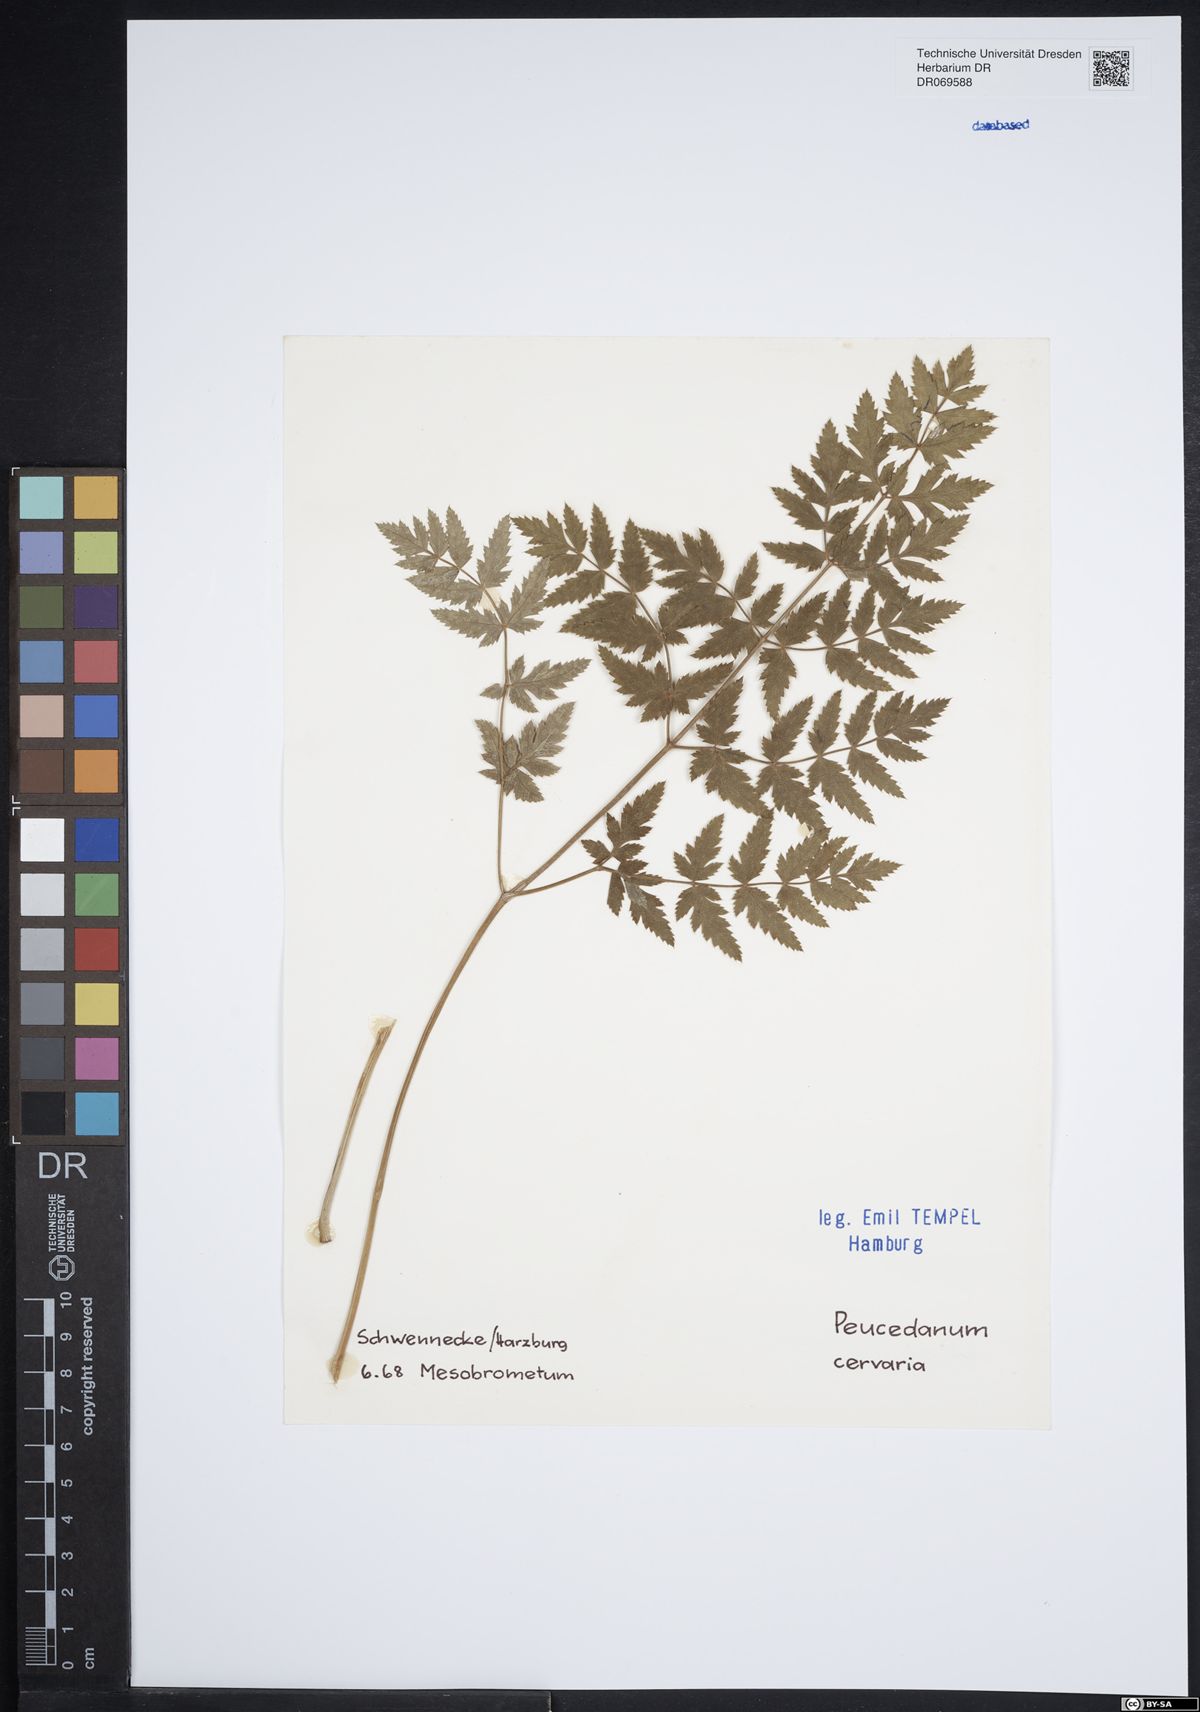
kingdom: Plantae
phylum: Tracheophyta
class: Magnoliopsida
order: Apiales
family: Apiaceae
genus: Cervaria
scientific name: Cervaria rivini
